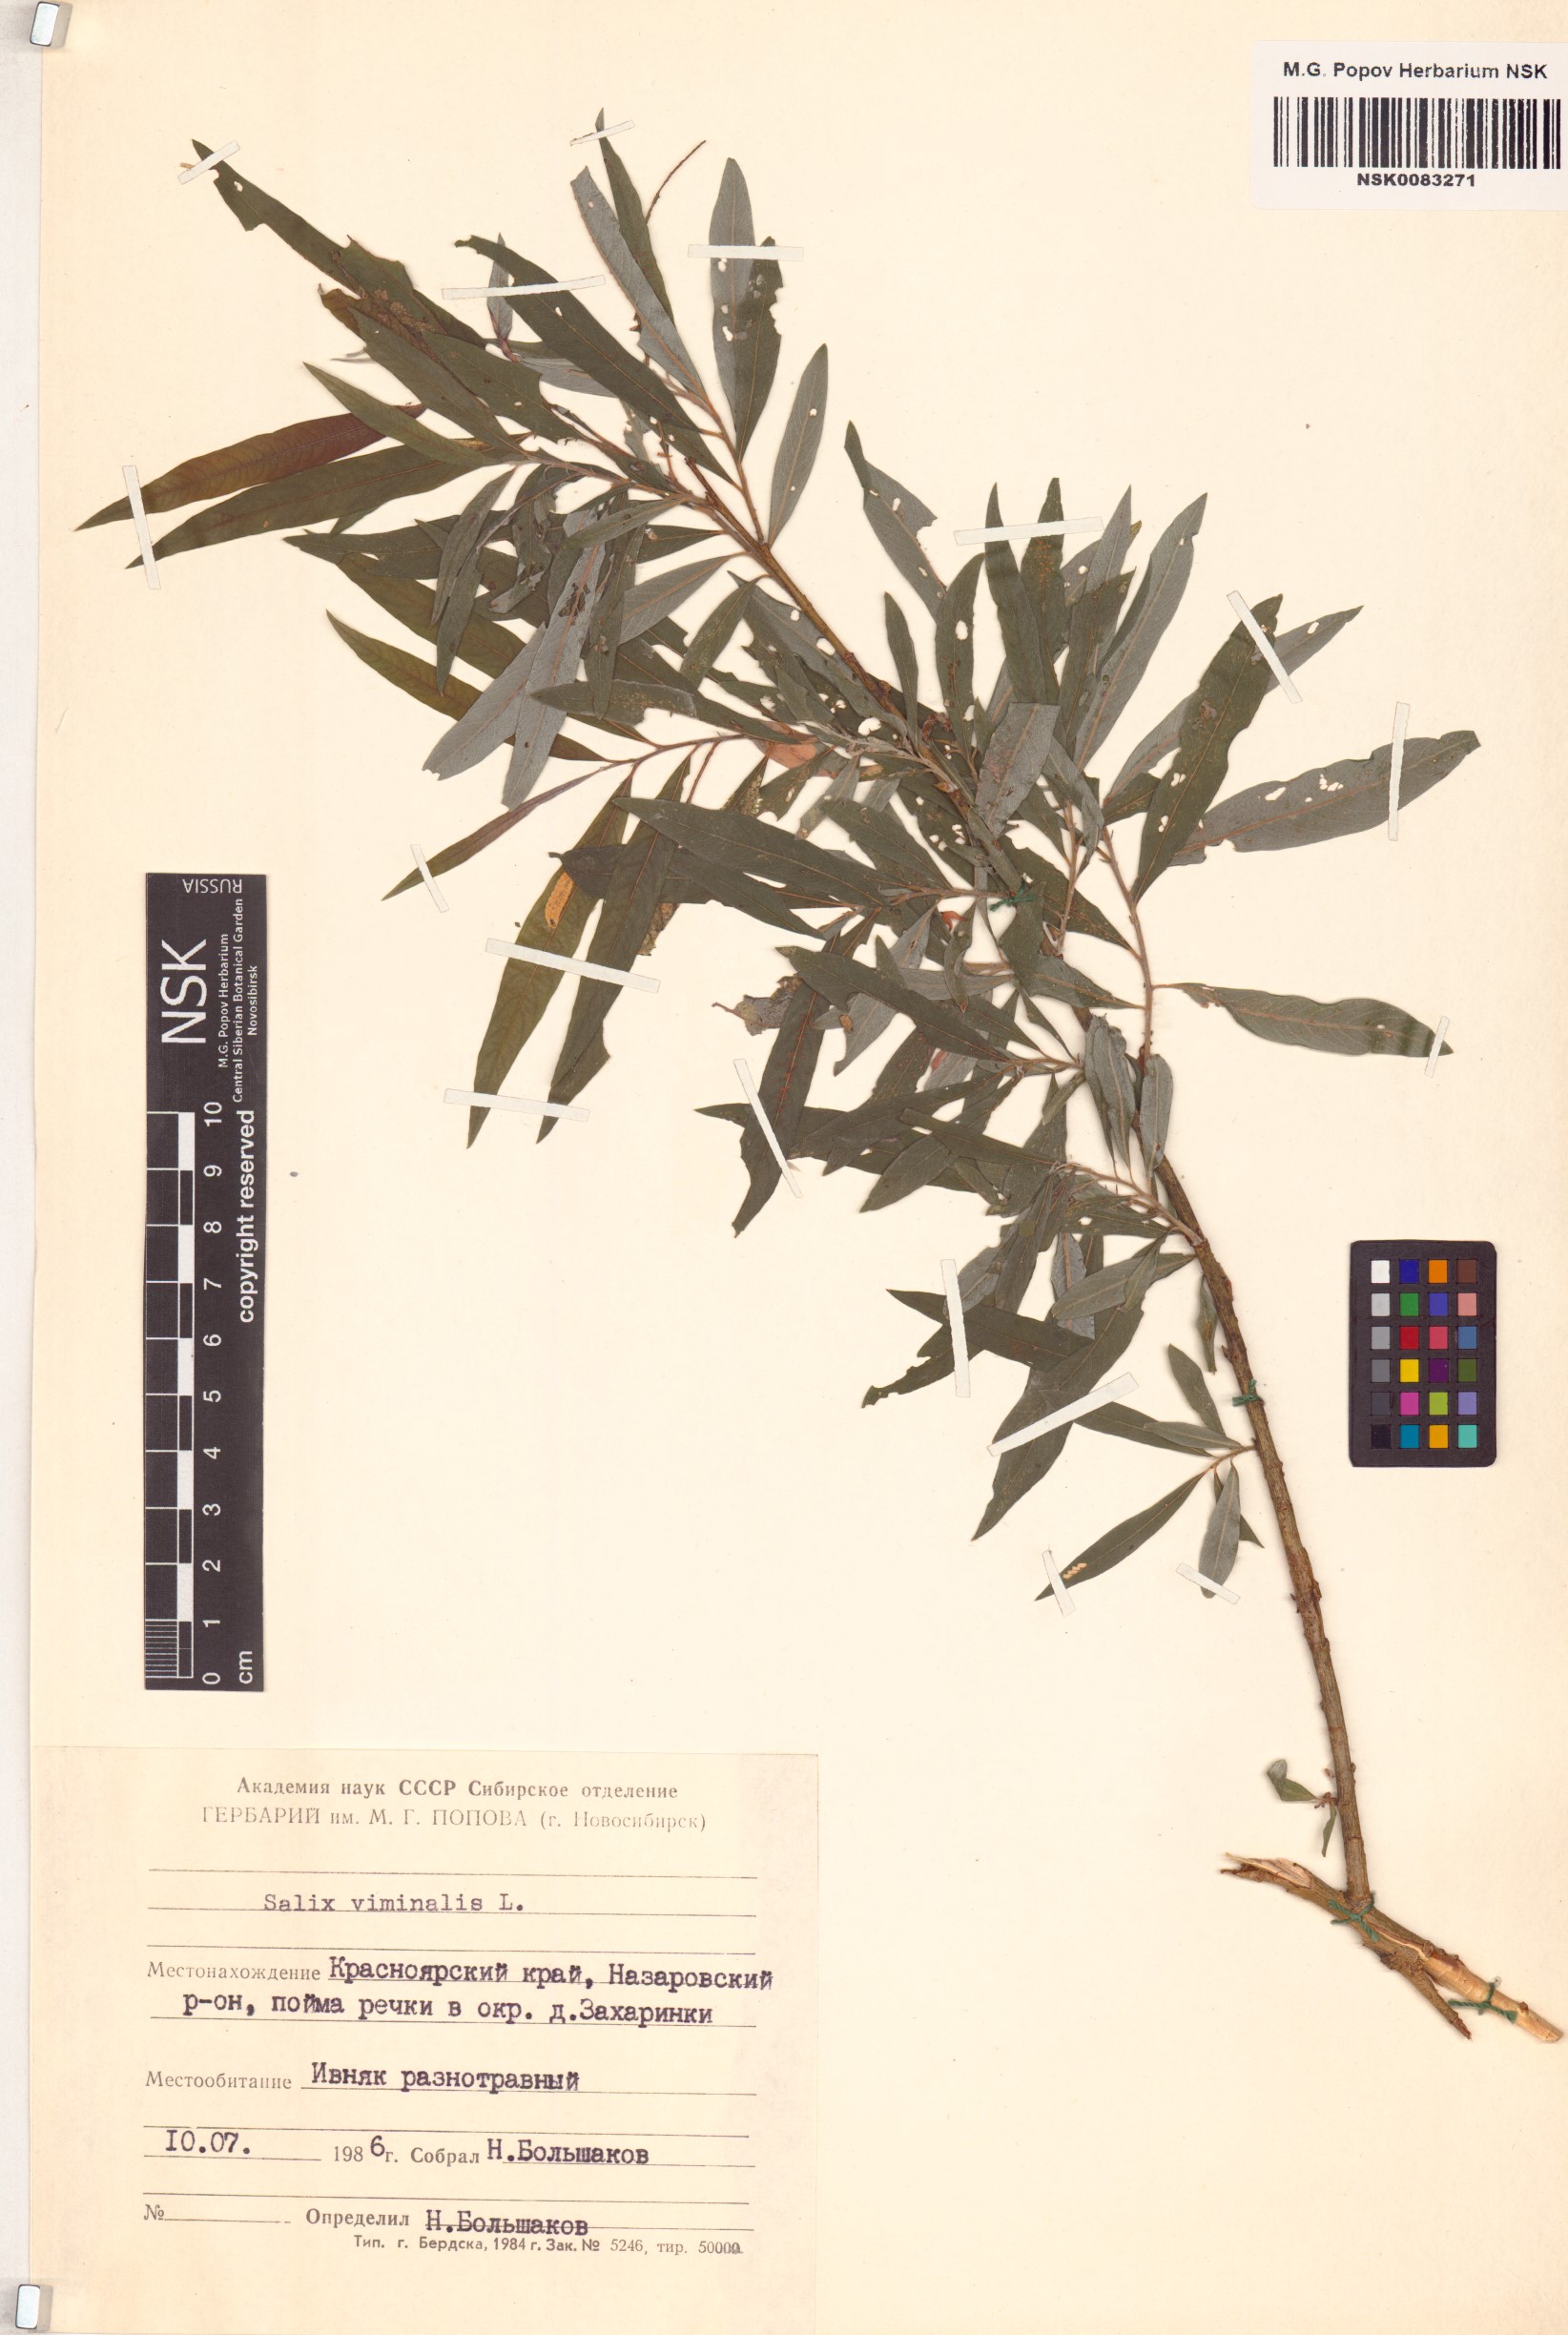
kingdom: Plantae
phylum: Tracheophyta
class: Magnoliopsida
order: Malpighiales
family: Salicaceae
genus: Salix
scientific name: Salix viminalis
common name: Osier
